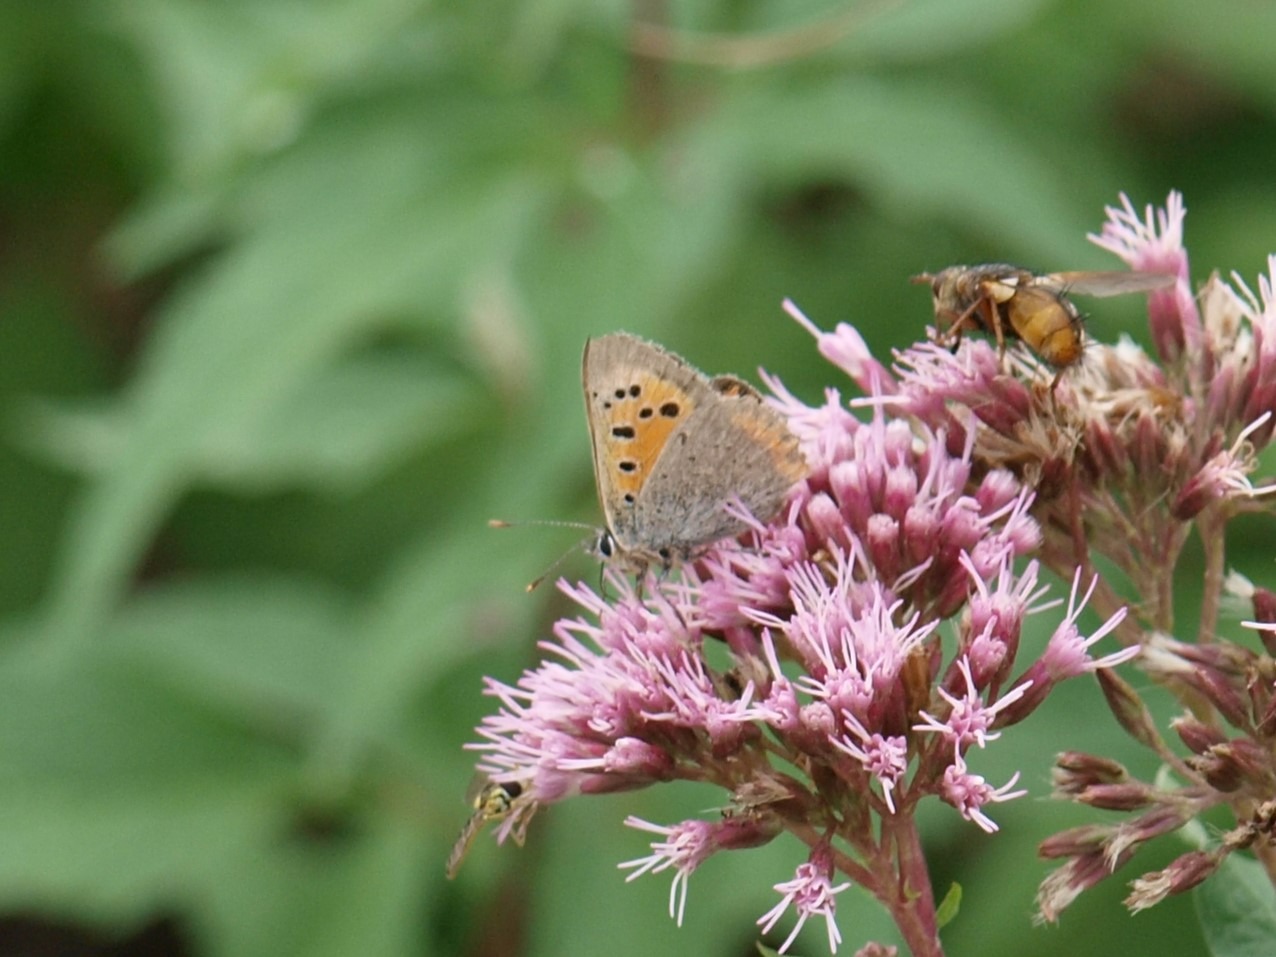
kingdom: Animalia
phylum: Arthropoda
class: Insecta
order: Lepidoptera
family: Lycaenidae
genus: Lycaena
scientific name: Lycaena phlaeas
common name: Lille ildfugl
